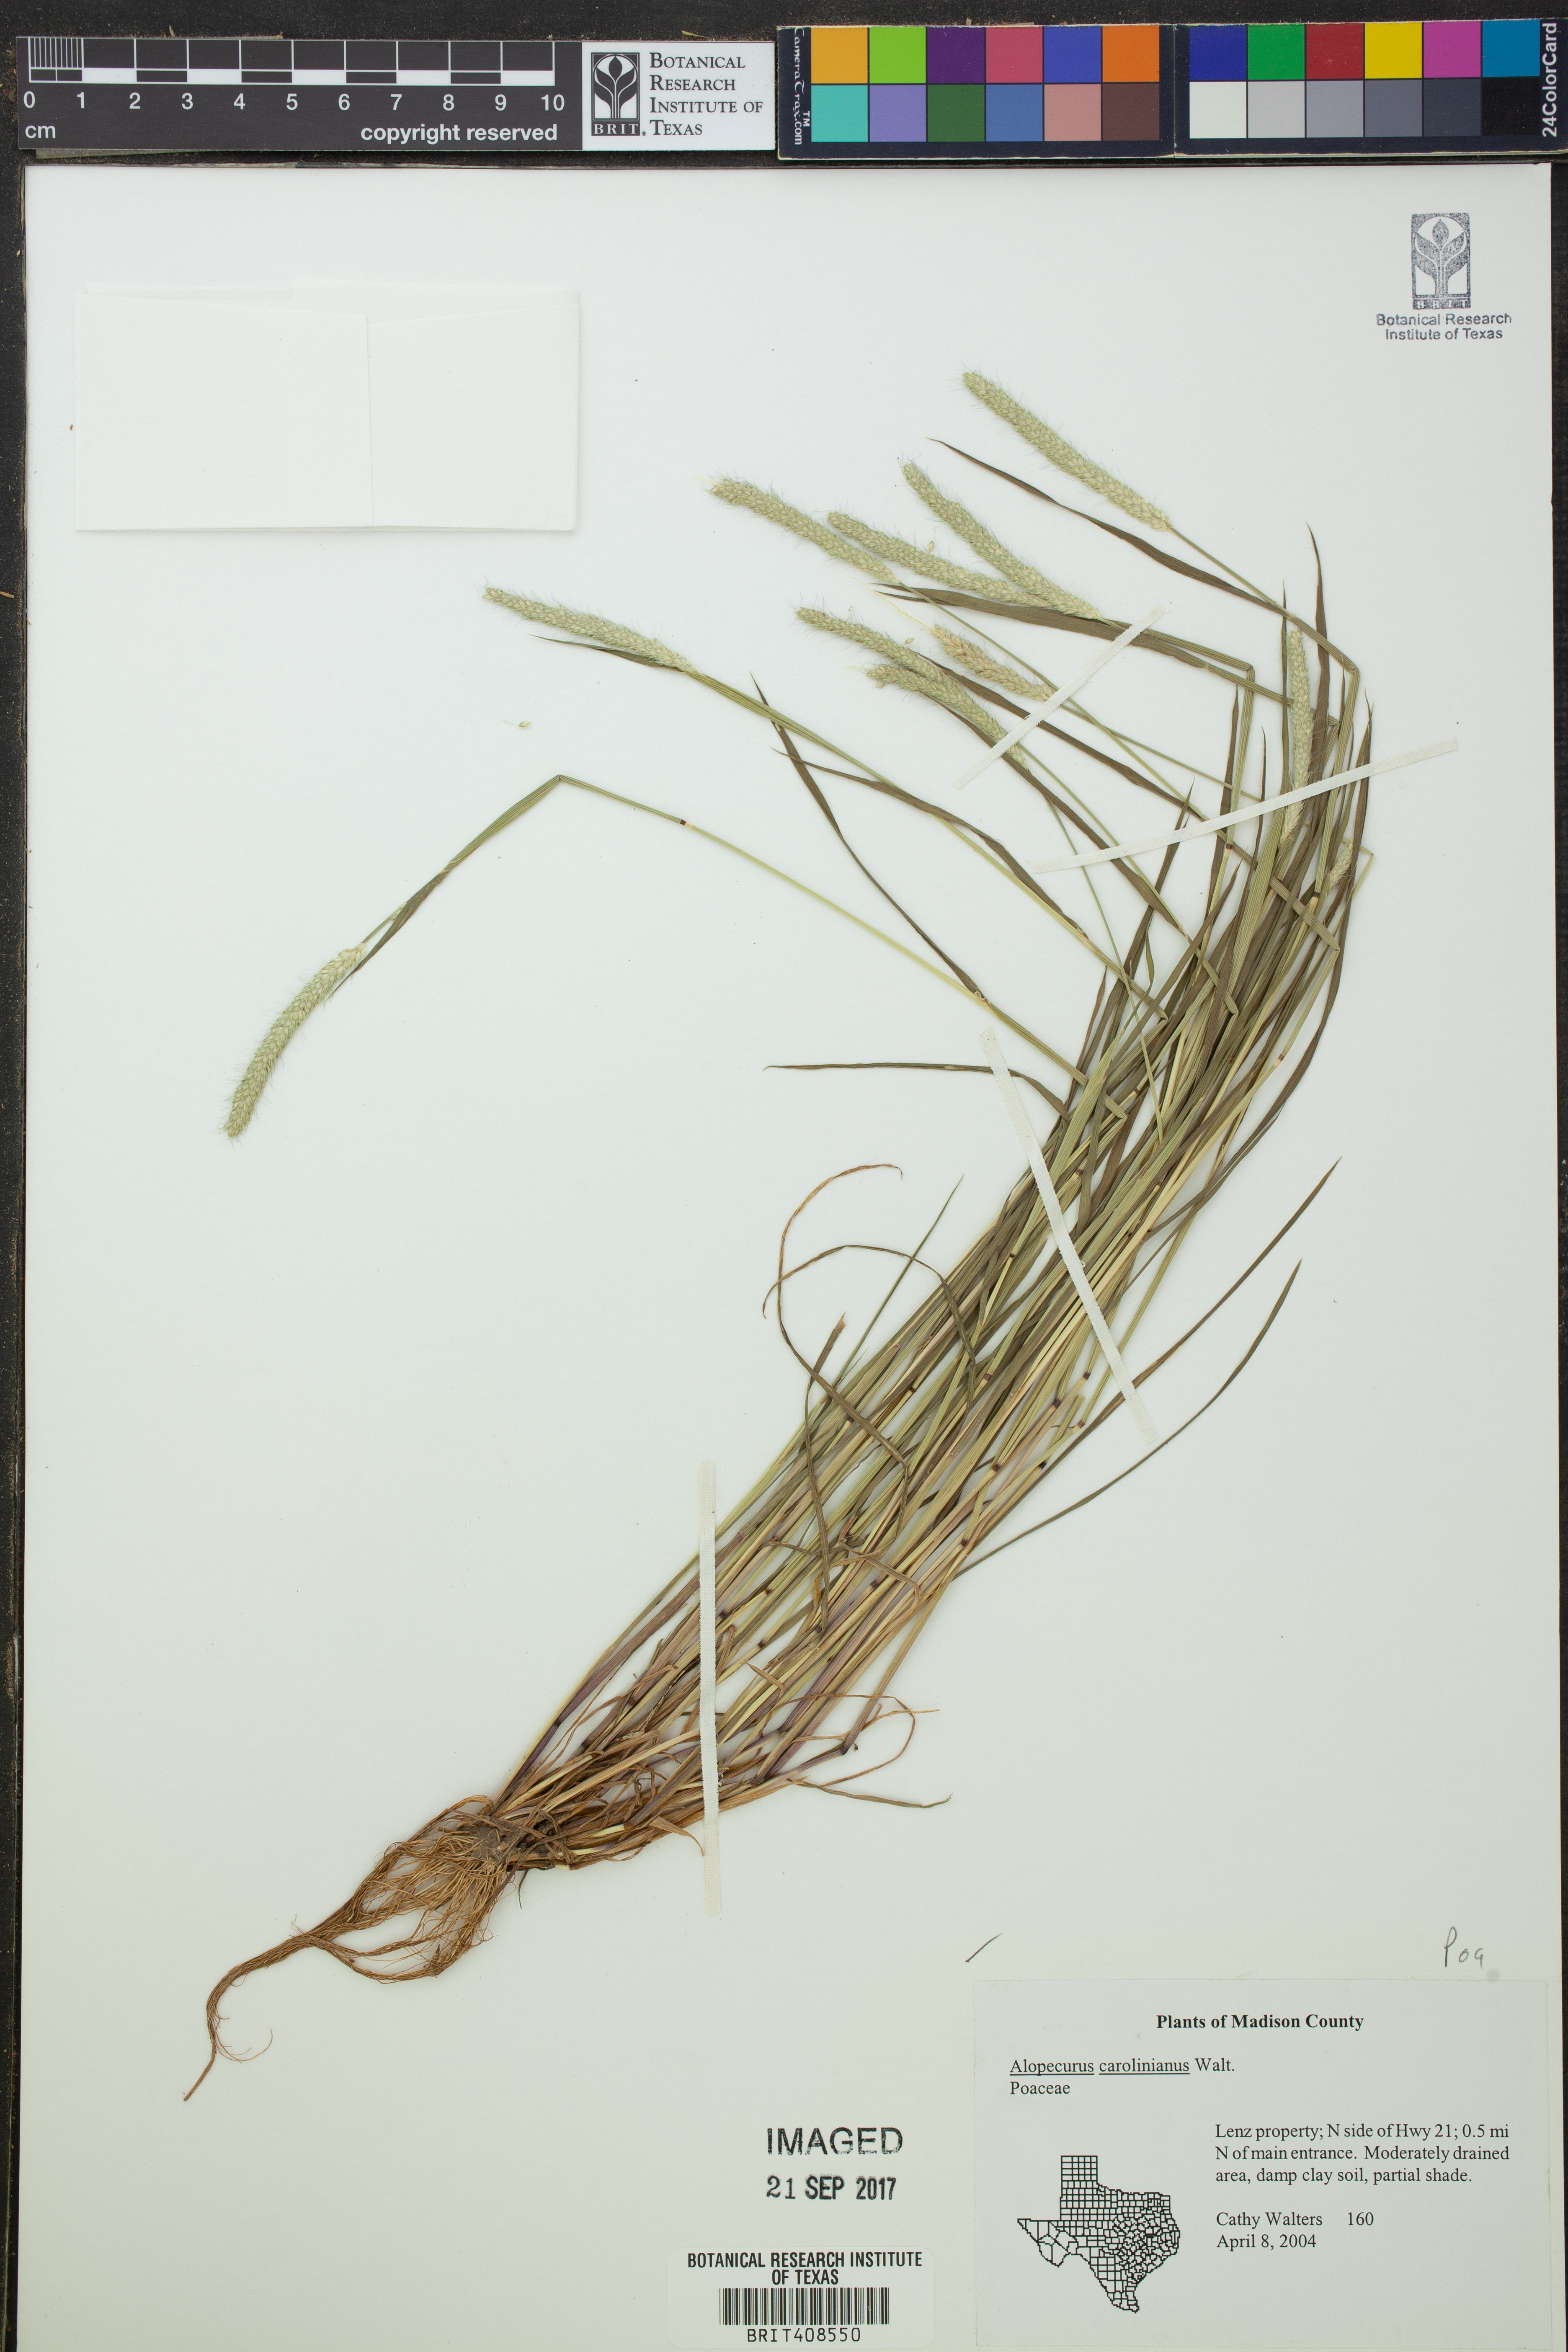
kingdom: Plantae
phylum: Tracheophyta
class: Liliopsida
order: Poales
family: Poaceae
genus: Alopecurus
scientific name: Alopecurus carolinianus
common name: Tufted foxtail
